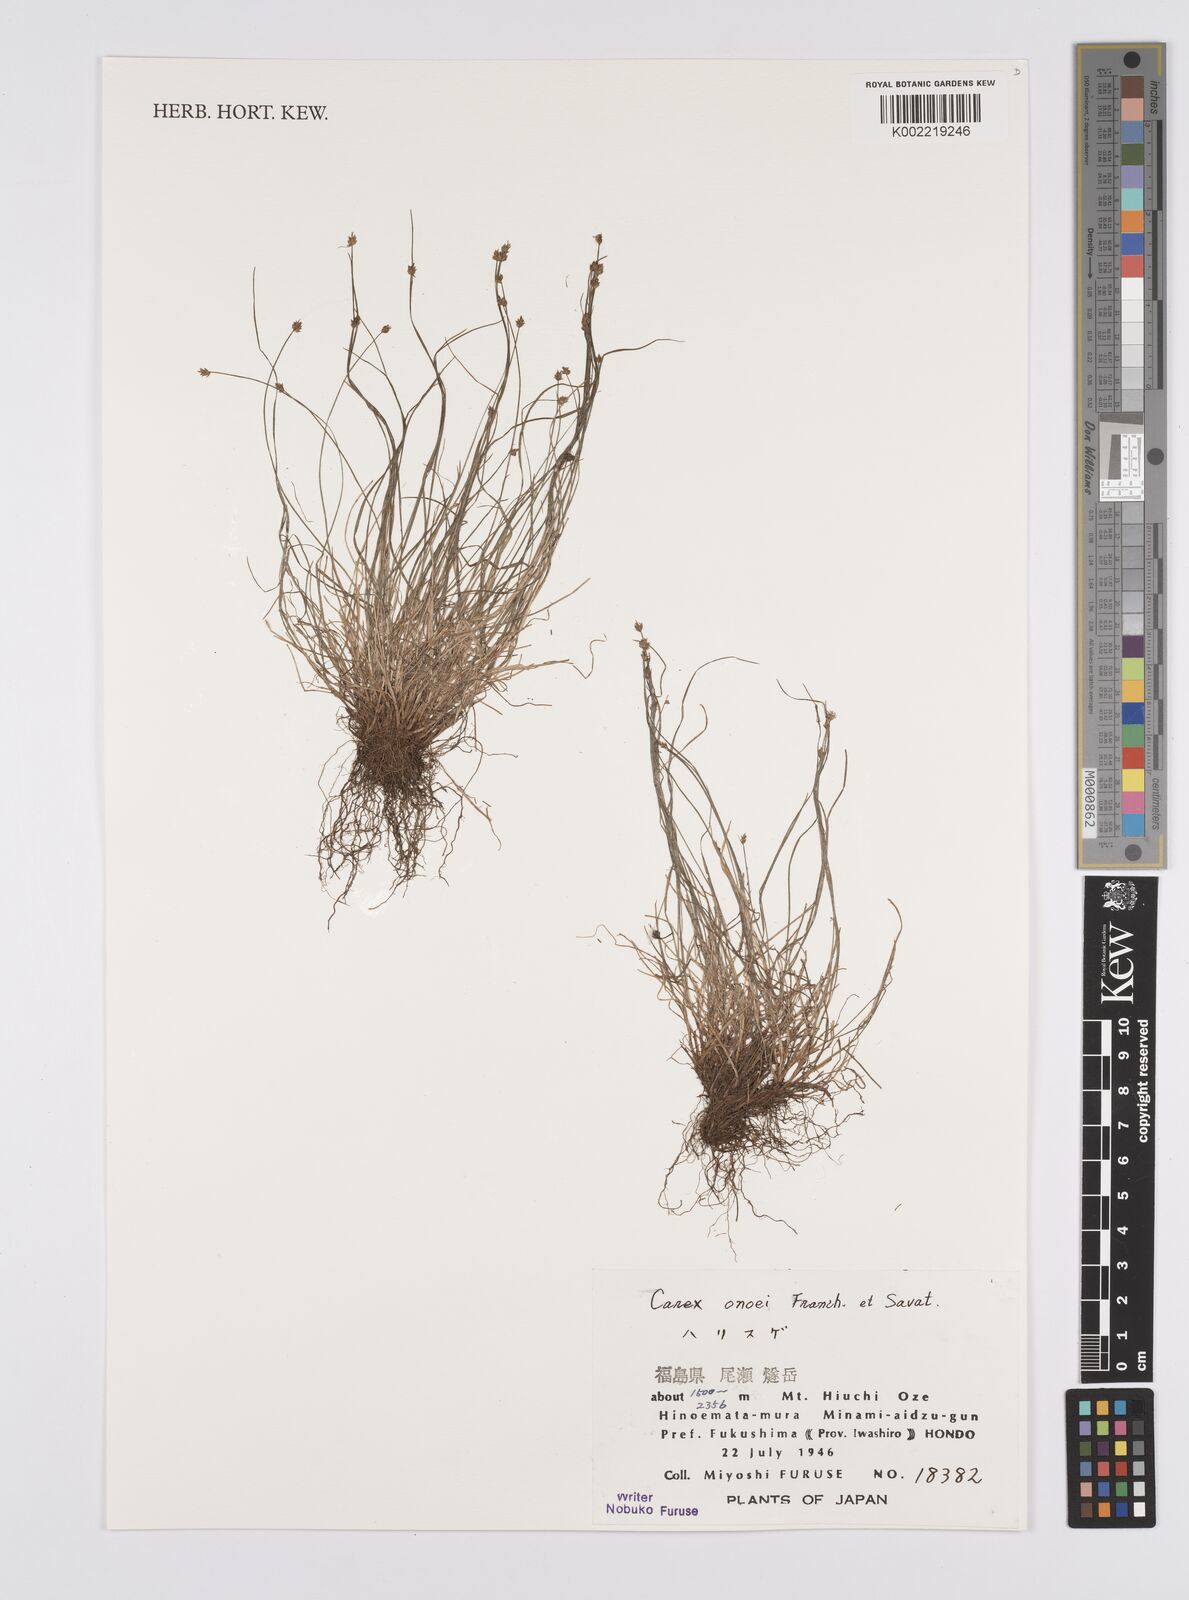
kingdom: Plantae
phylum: Tracheophyta
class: Liliopsida
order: Poales
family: Cyperaceae
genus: Carex
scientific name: Carex onoei
